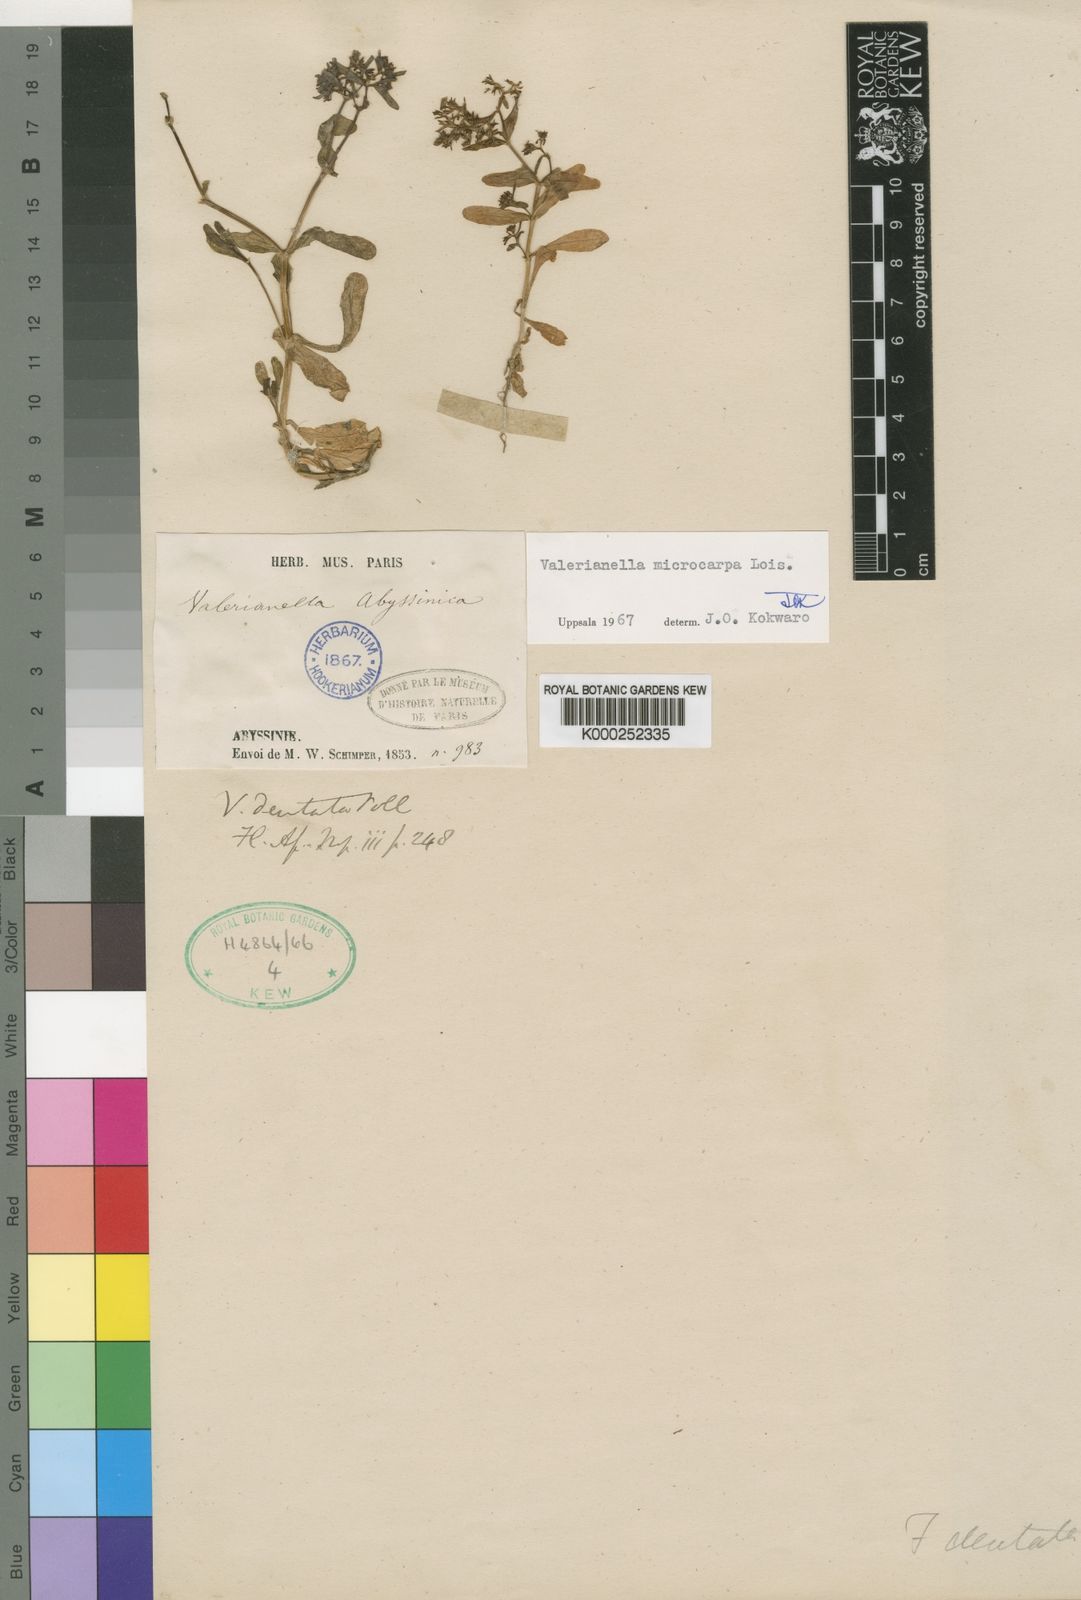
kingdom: Plantae
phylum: Tracheophyta
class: Magnoliopsida
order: Dipsacales
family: Caprifoliaceae
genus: Valerianella
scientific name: Valerianella microcarpa
